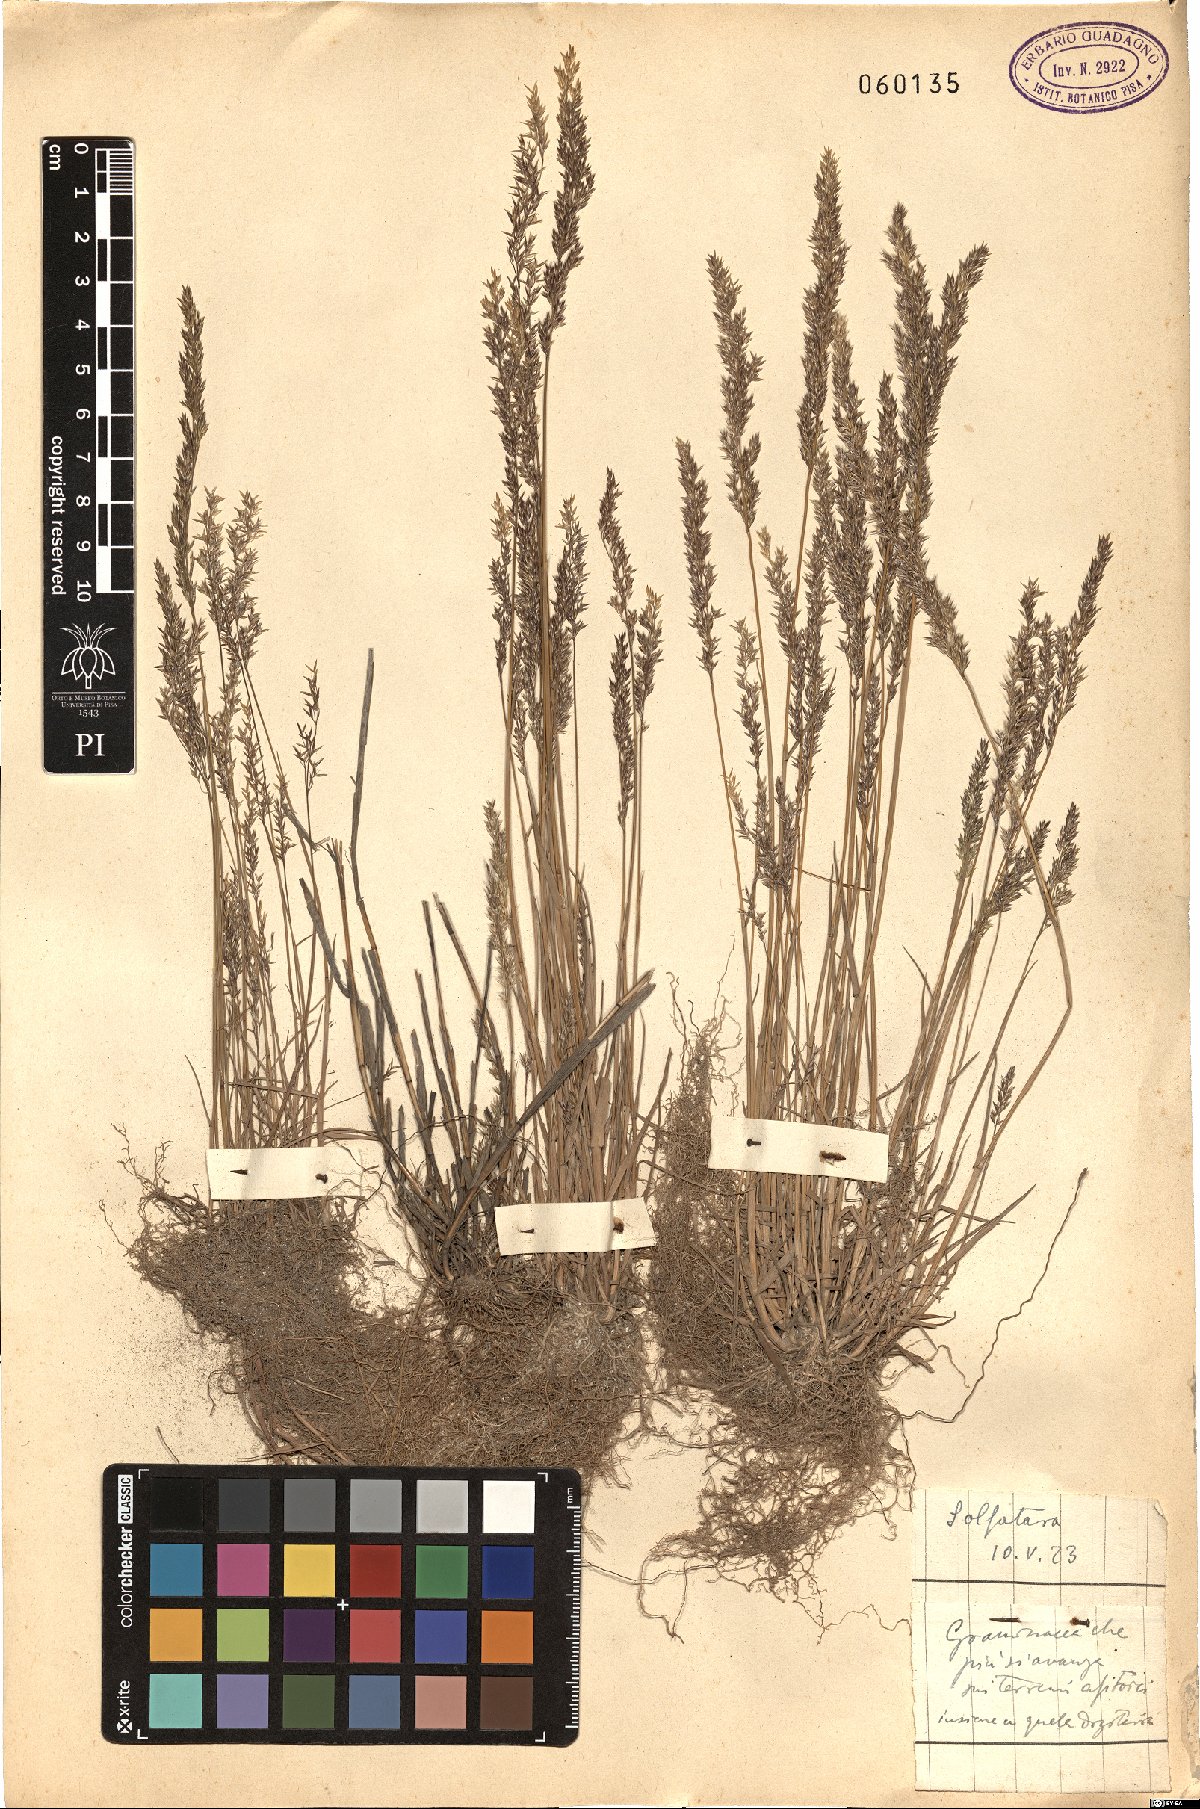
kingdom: Plantae
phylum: Tracheophyta
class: Liliopsida
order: Poales
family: Poaceae
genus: Agrostis
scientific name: Agrostis
